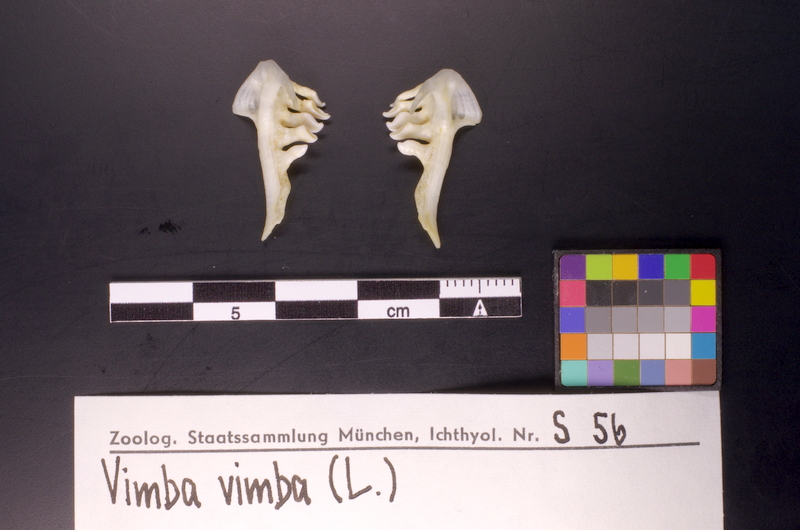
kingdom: Animalia
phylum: Chordata
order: Cypriniformes
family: Cyprinidae
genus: Vimba
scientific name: Vimba vimba
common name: Vimba
